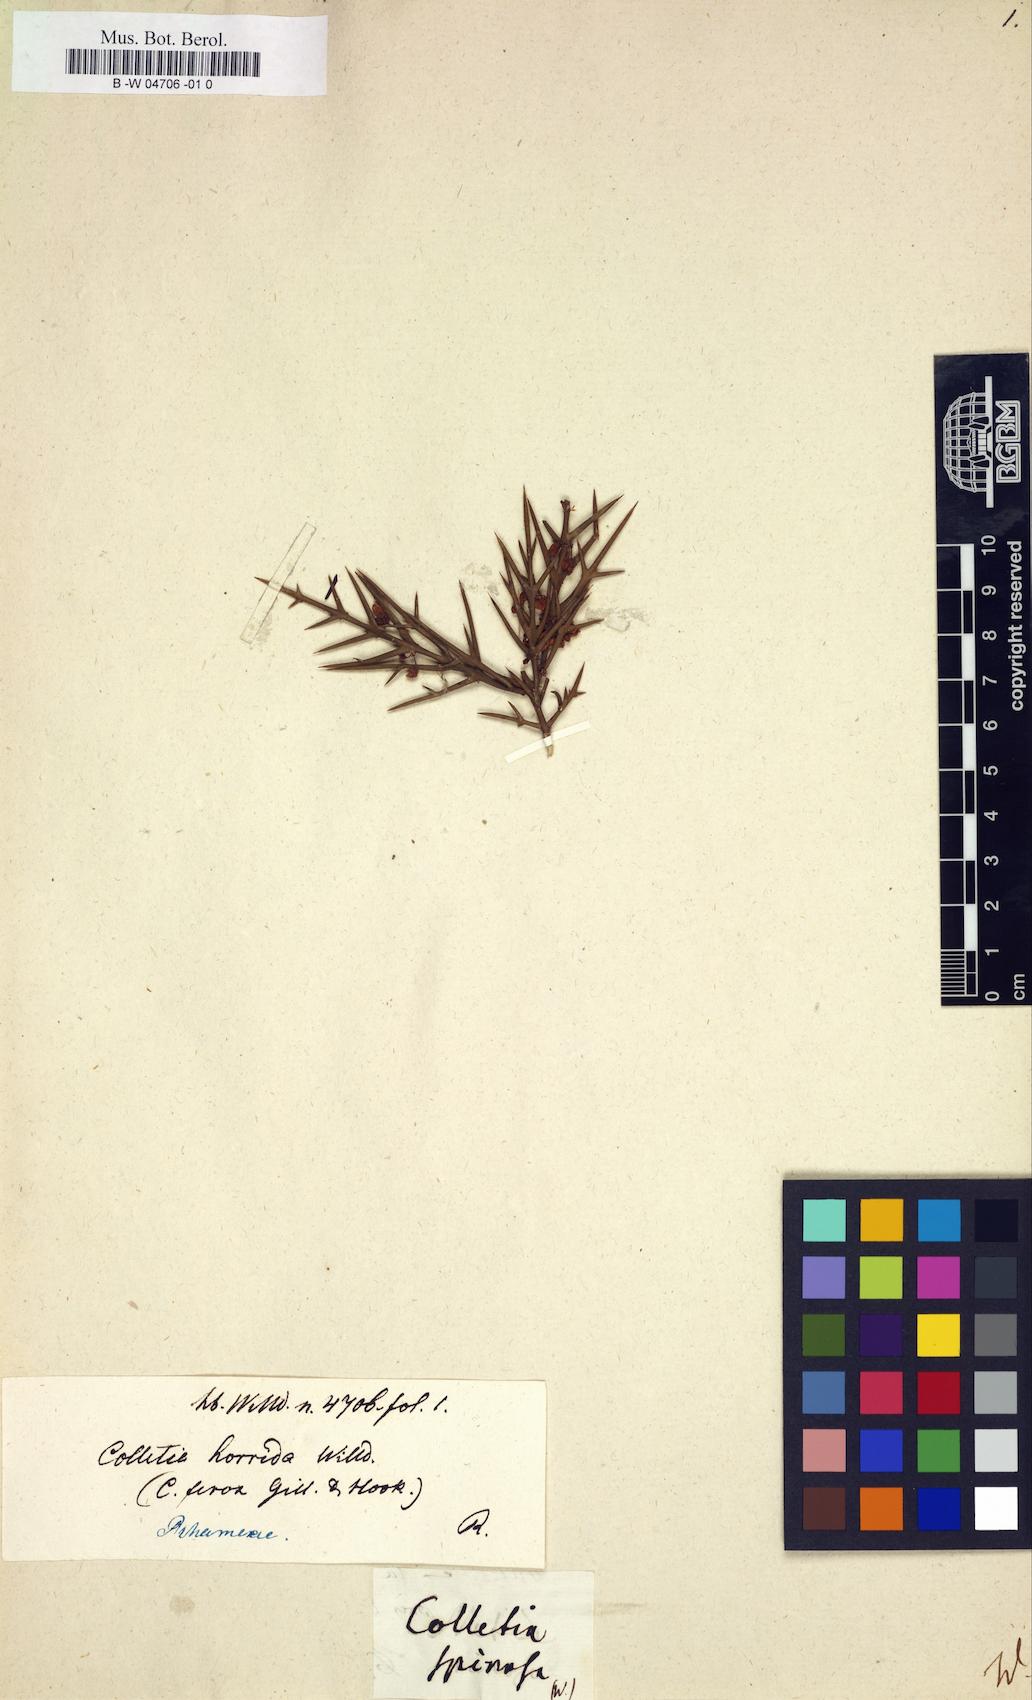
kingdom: Plantae
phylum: Tracheophyta
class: Magnoliopsida
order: Rosales
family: Rhamnaceae
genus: Colletia
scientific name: Colletia spinosissima
